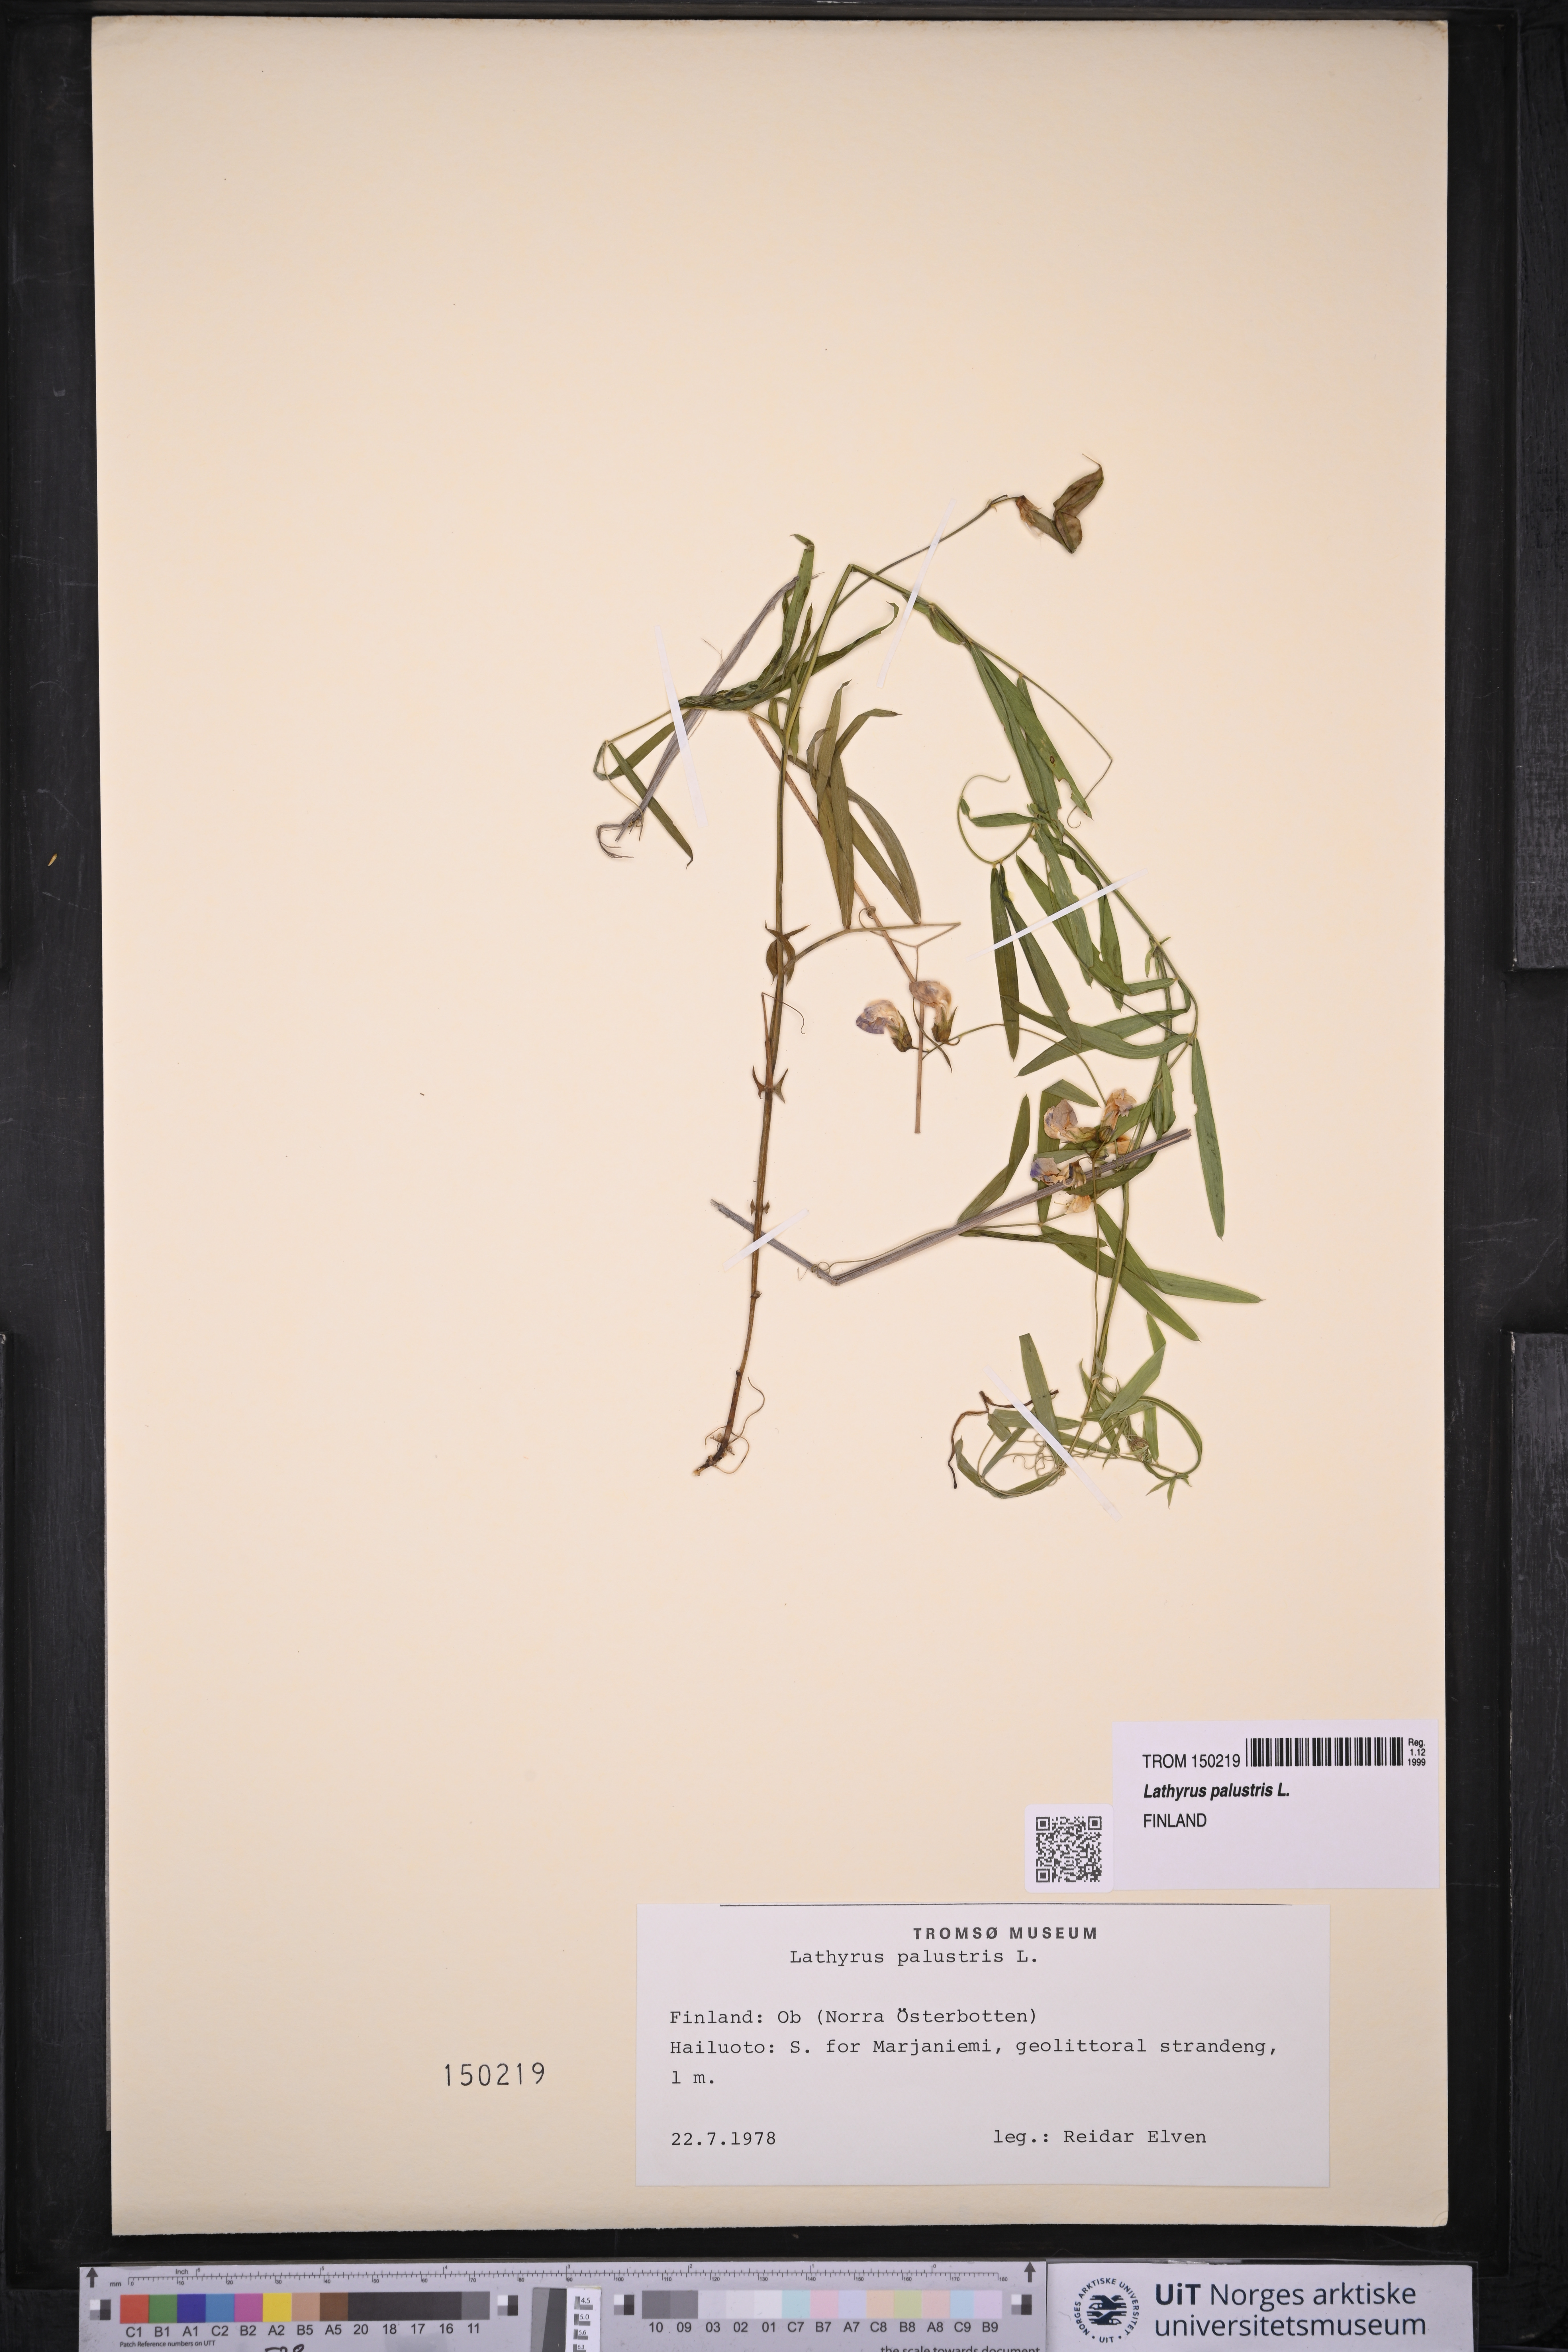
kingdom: Plantae
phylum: Tracheophyta
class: Magnoliopsida
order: Fabales
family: Fabaceae
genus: Lathyrus
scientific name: Lathyrus palustris
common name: Marsh pea
